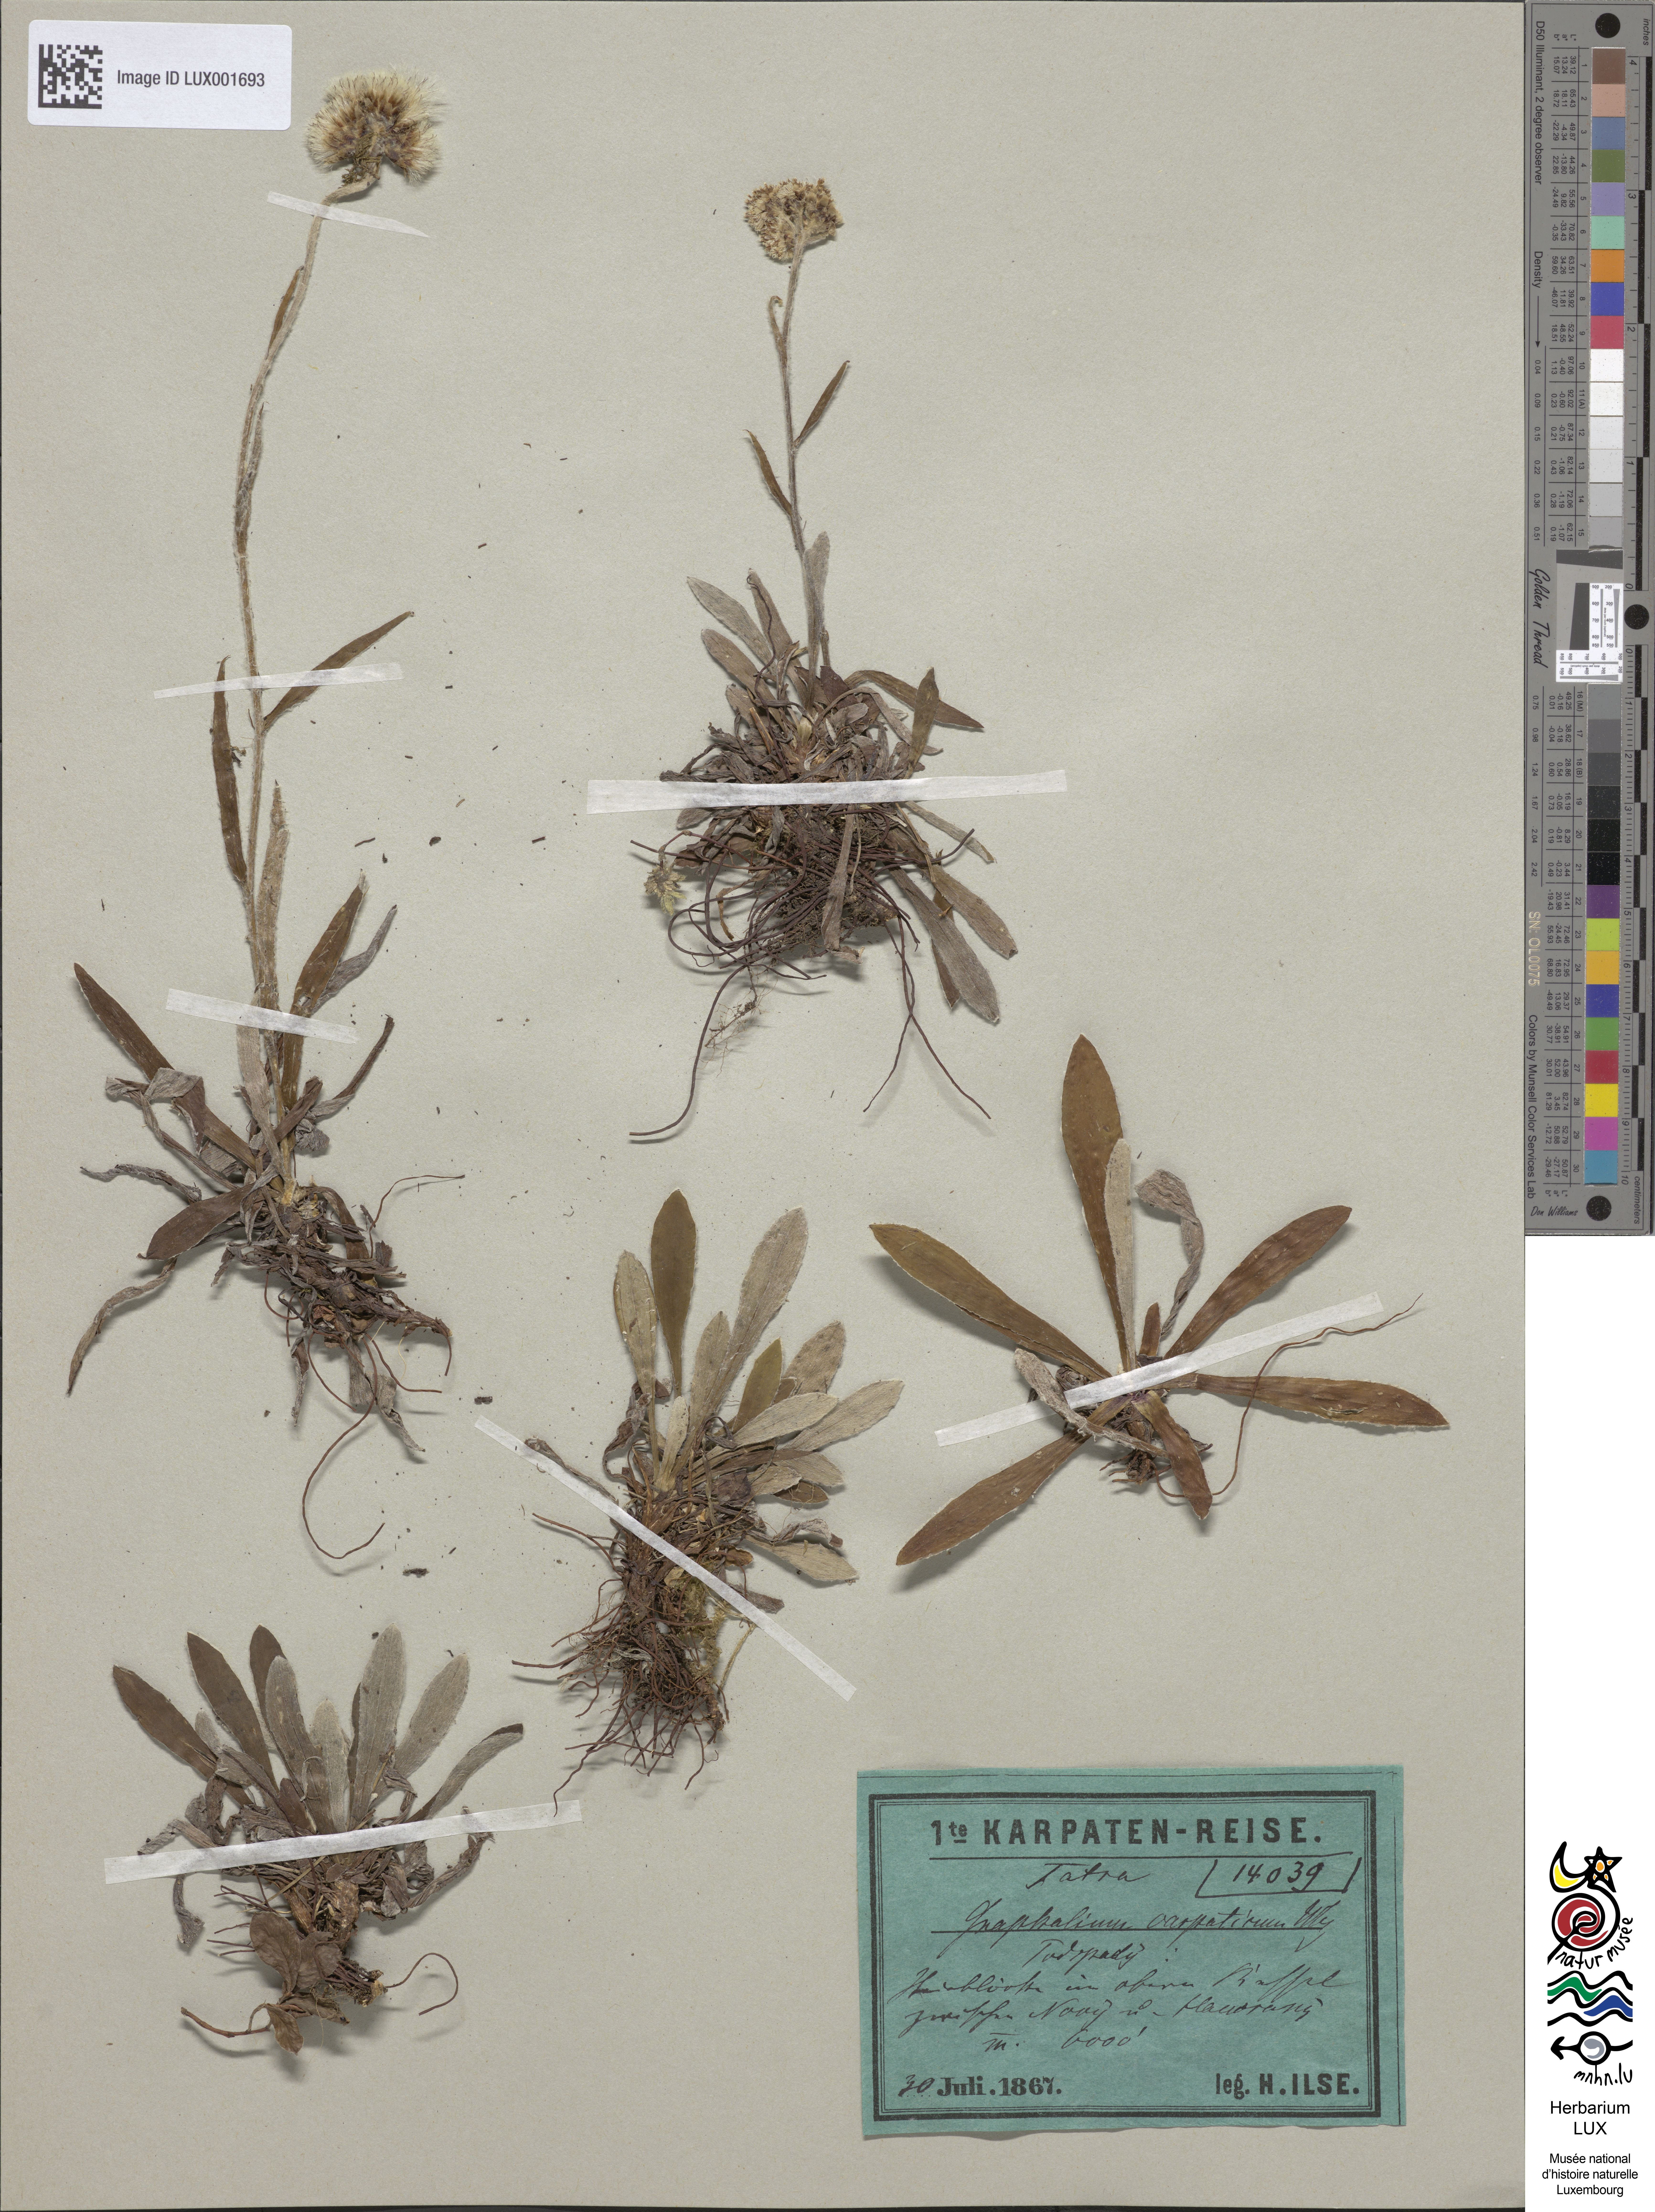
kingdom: Plantae
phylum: Tracheophyta
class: Magnoliopsida
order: Asterales
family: Asteraceae
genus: Antennaria
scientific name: Antennaria carpatica
